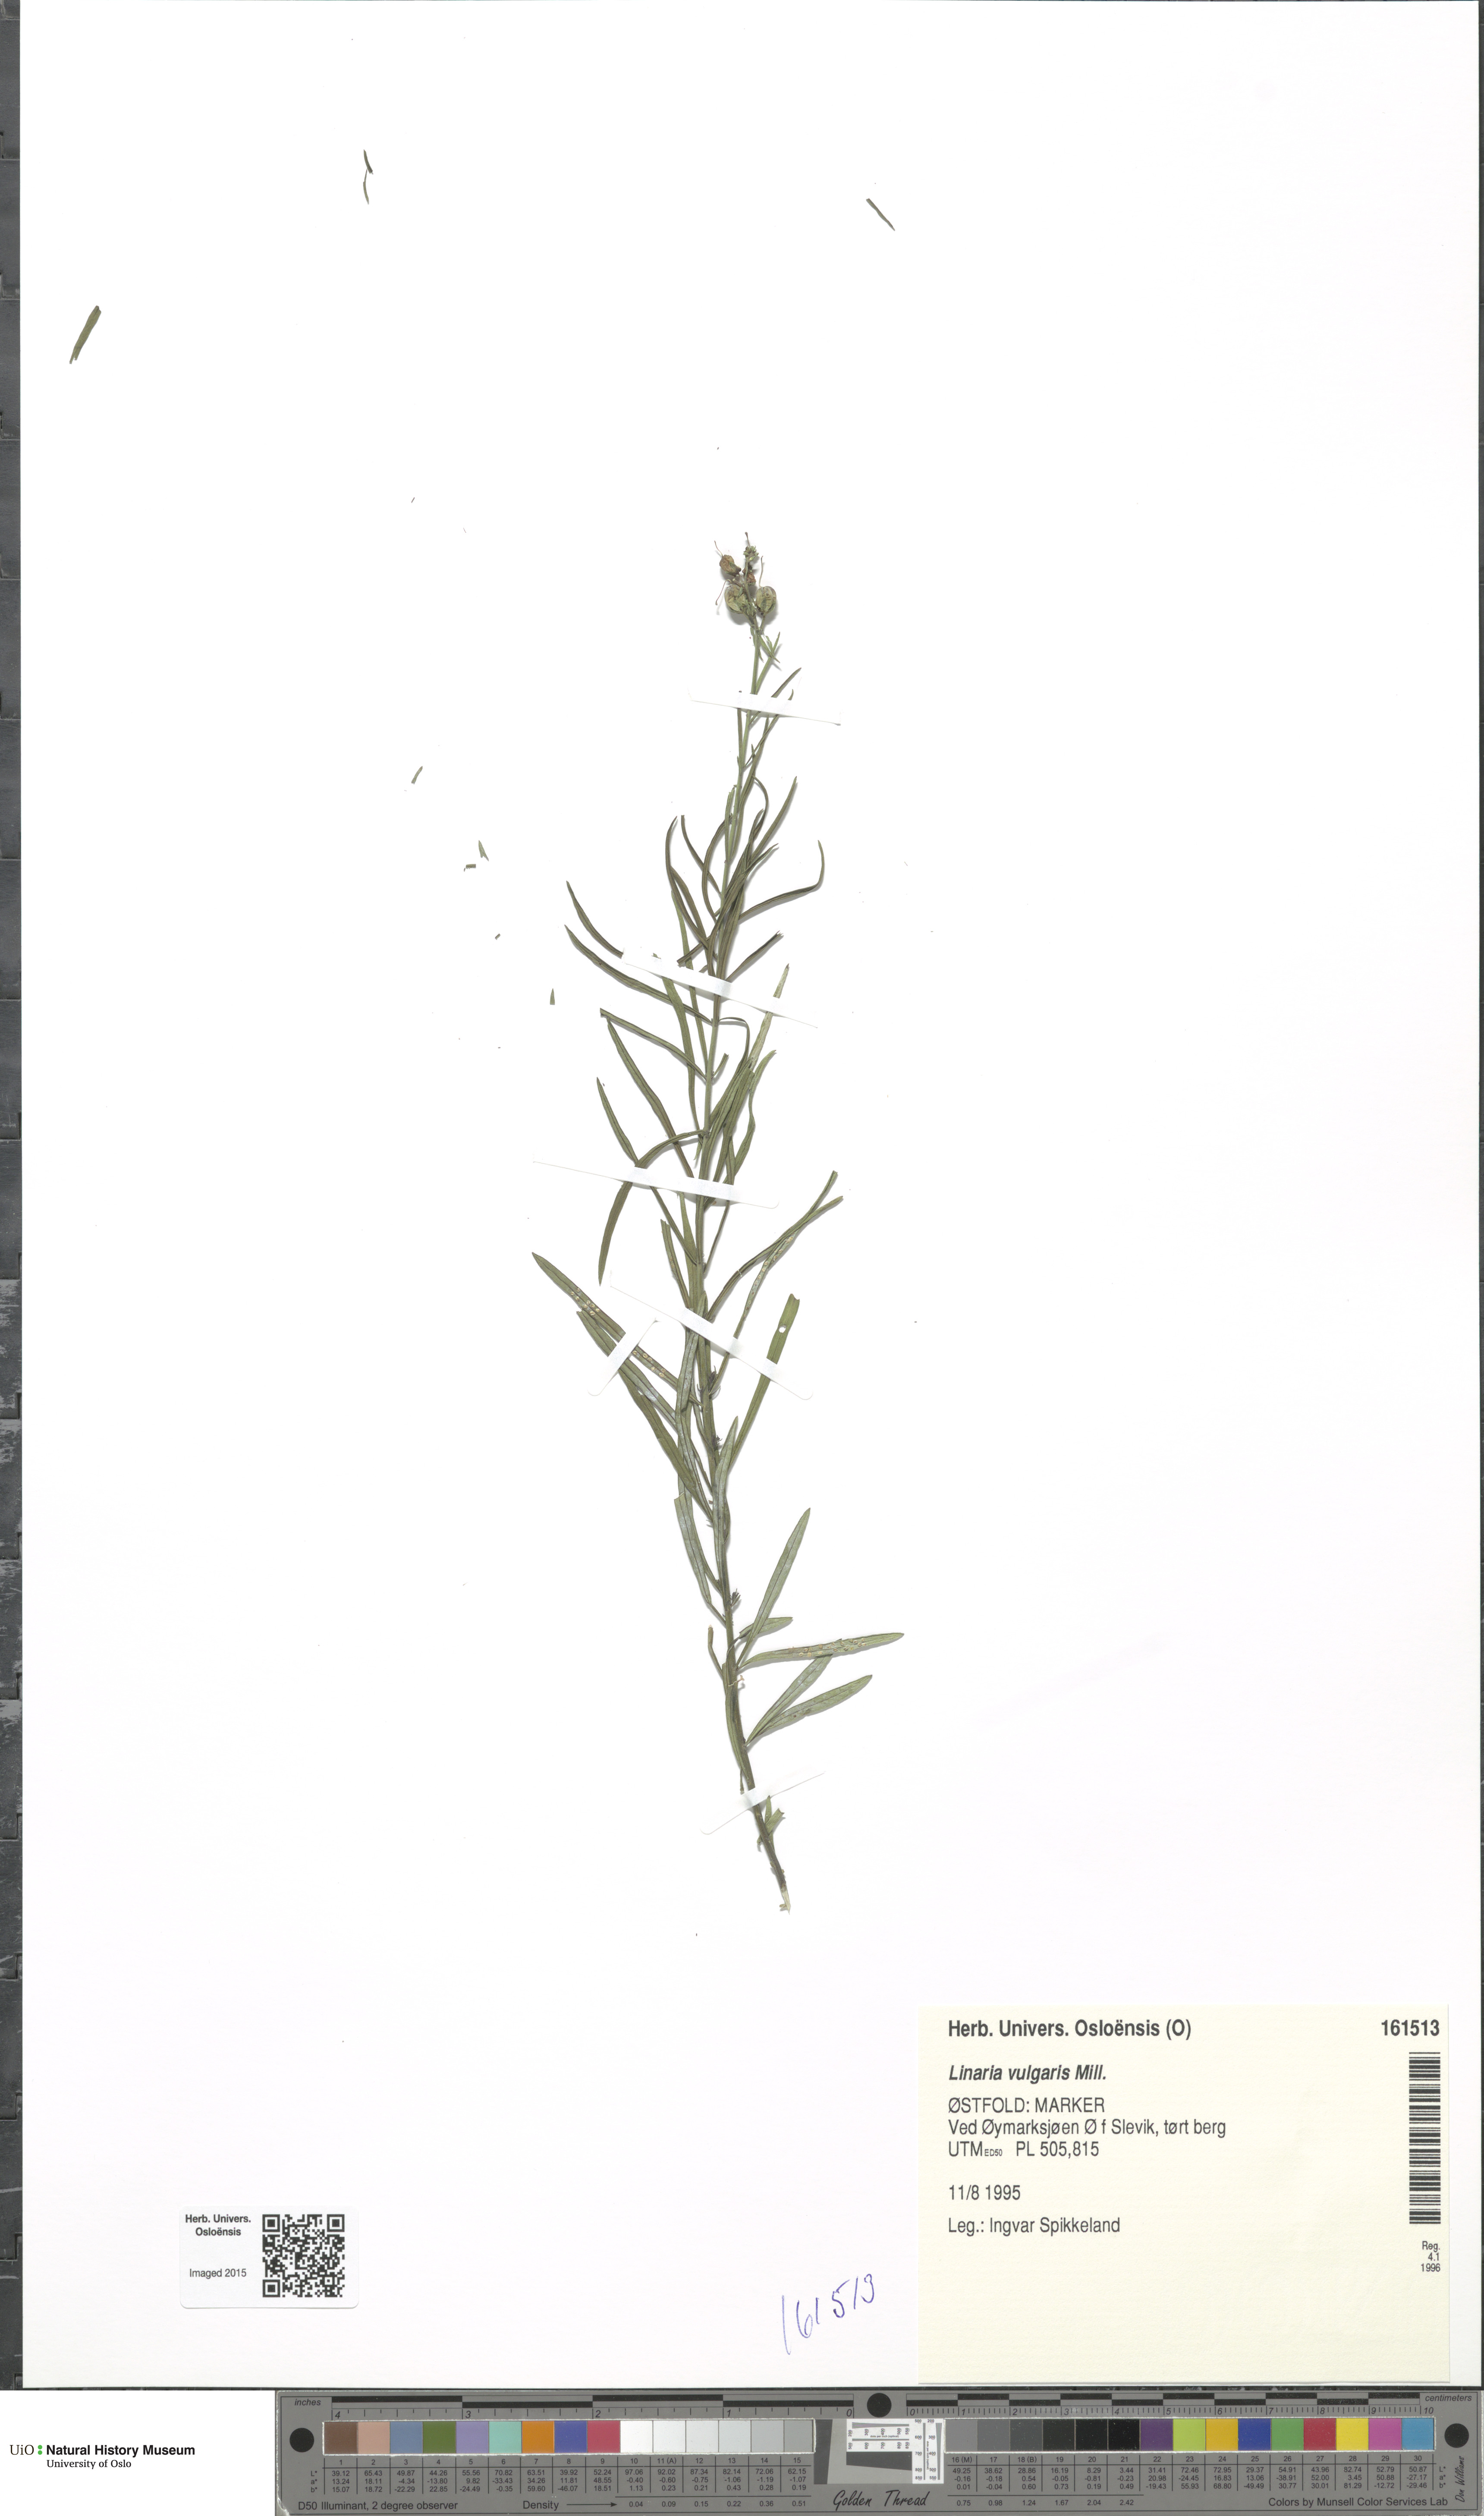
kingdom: Plantae
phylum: Tracheophyta
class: Magnoliopsida
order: Lamiales
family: Plantaginaceae
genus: Linaria
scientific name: Linaria vulgaris
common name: Butter and eggs
